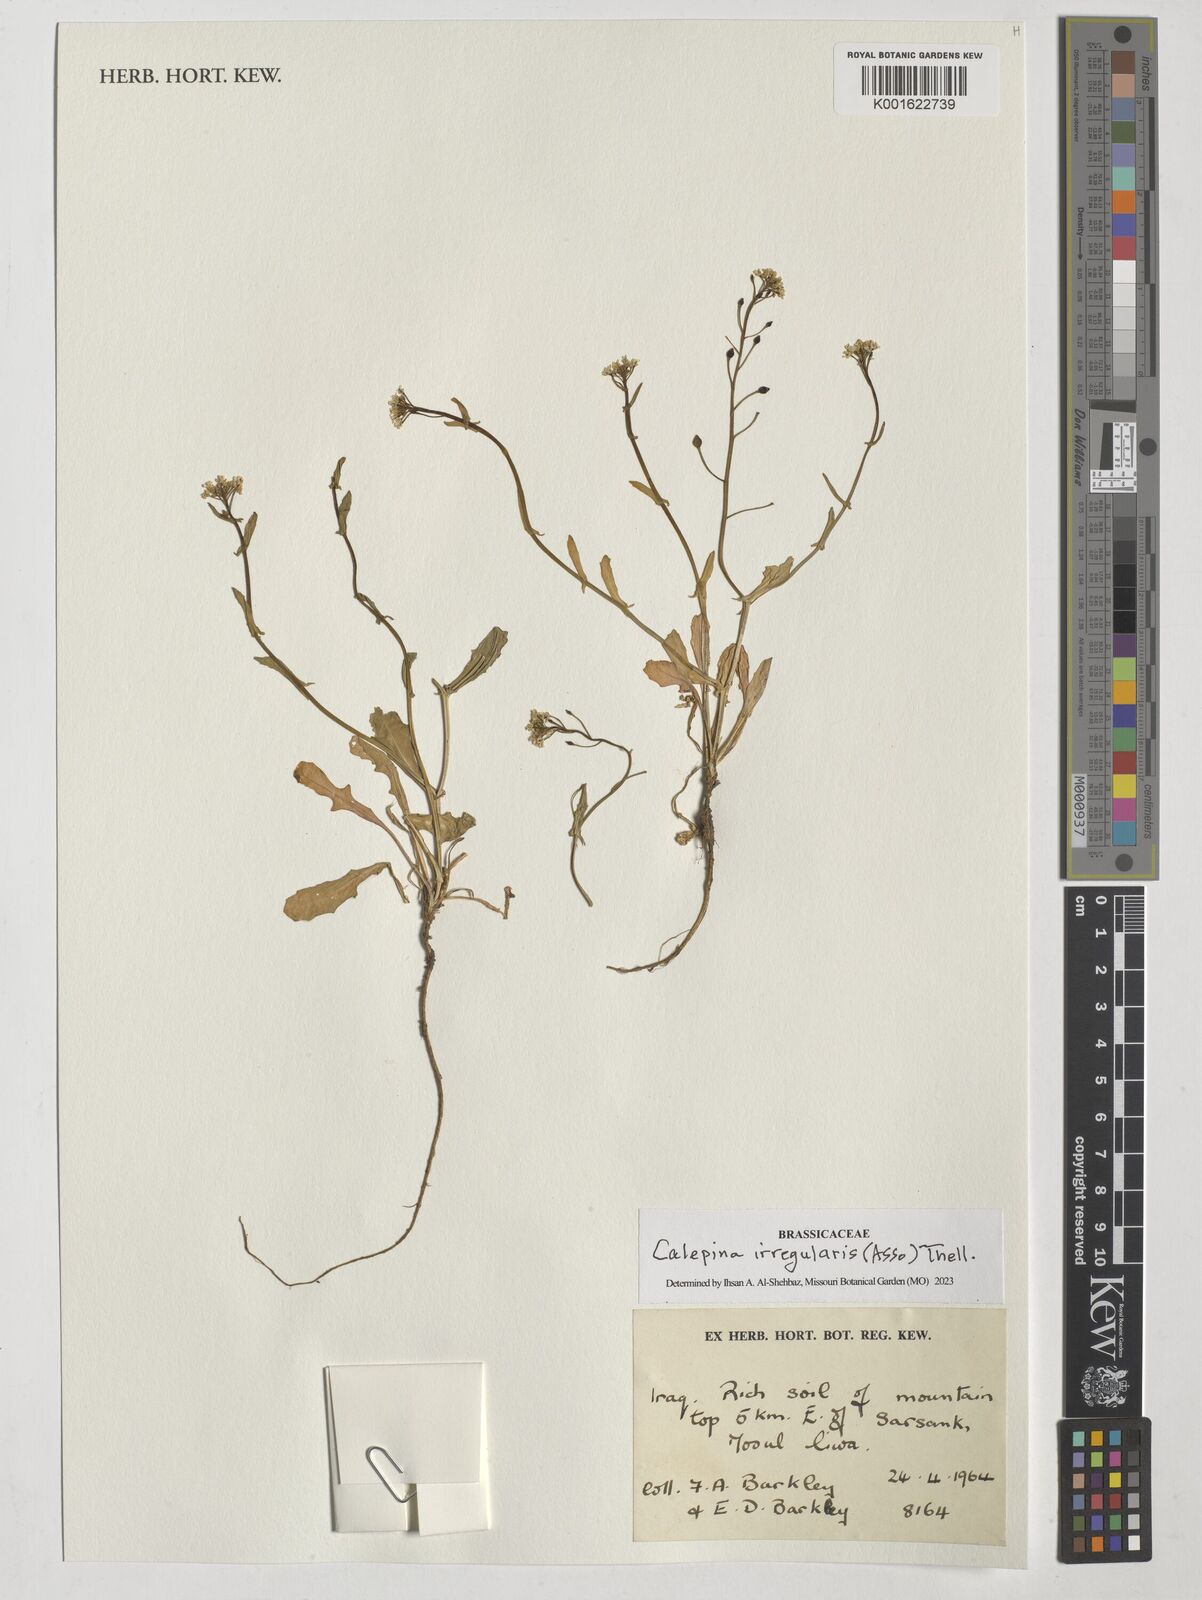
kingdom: Plantae
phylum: Tracheophyta
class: Magnoliopsida
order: Brassicales
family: Brassicaceae
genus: Calepina
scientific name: Calepina irregularis
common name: White ballmustard
